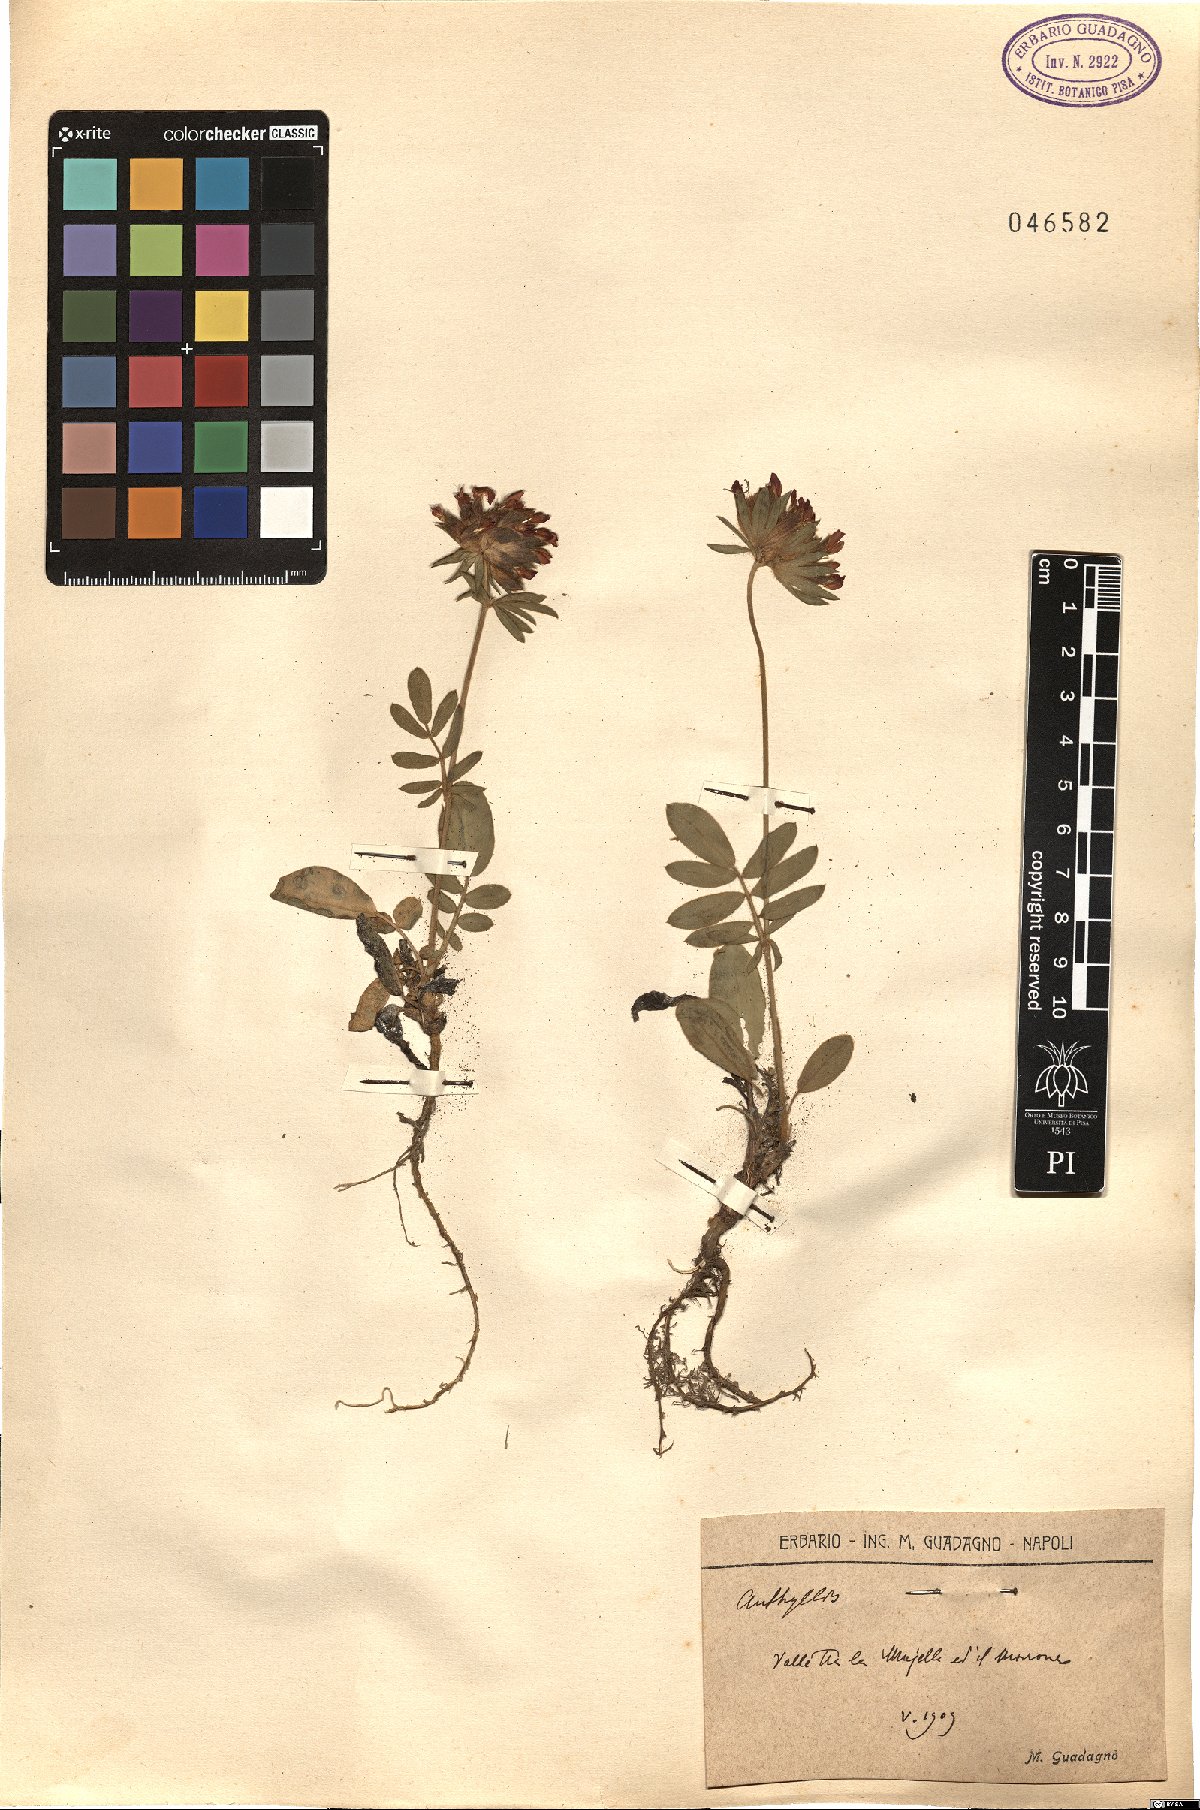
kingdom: Plantae
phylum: Tracheophyta
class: Magnoliopsida
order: Fabales
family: Fabaceae
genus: Anthyllis
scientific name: Anthyllis
